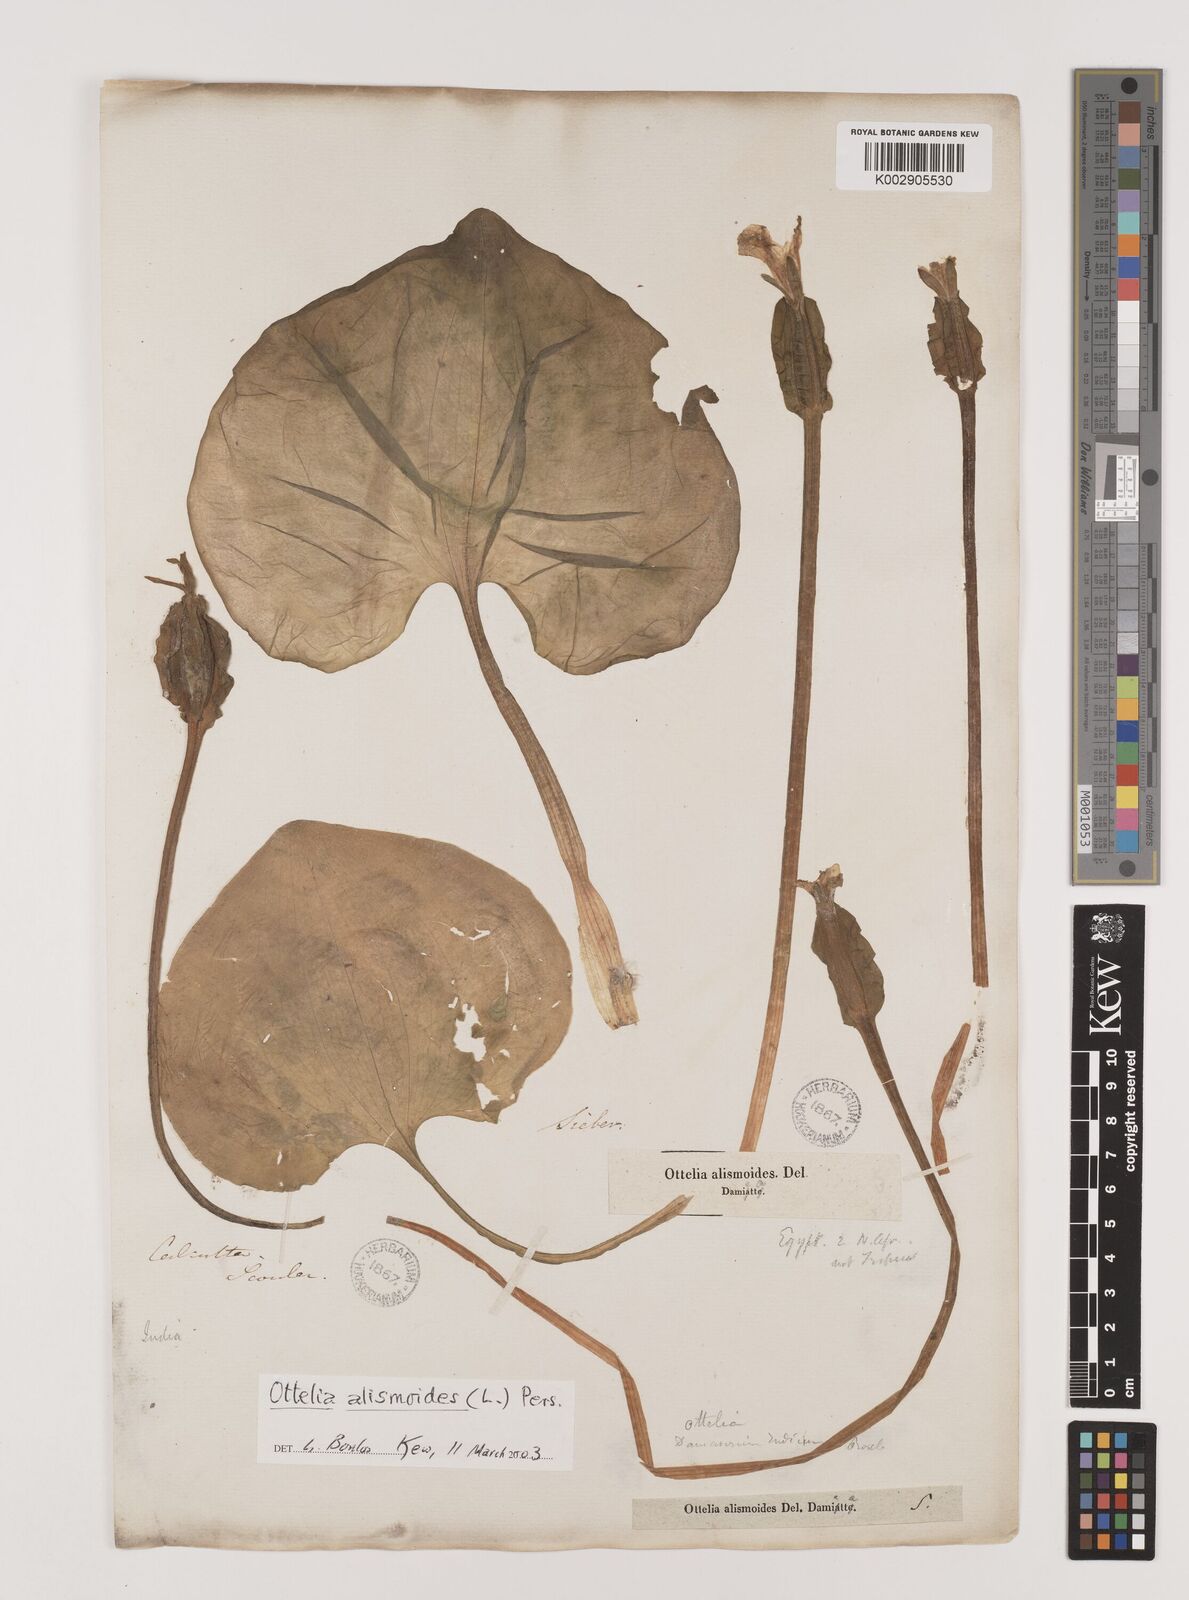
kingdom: Plantae
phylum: Tracheophyta
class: Liliopsida
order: Alismatales
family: Hydrocharitaceae
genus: Ottelia
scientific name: Ottelia alismoides
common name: Duck-lettuce
